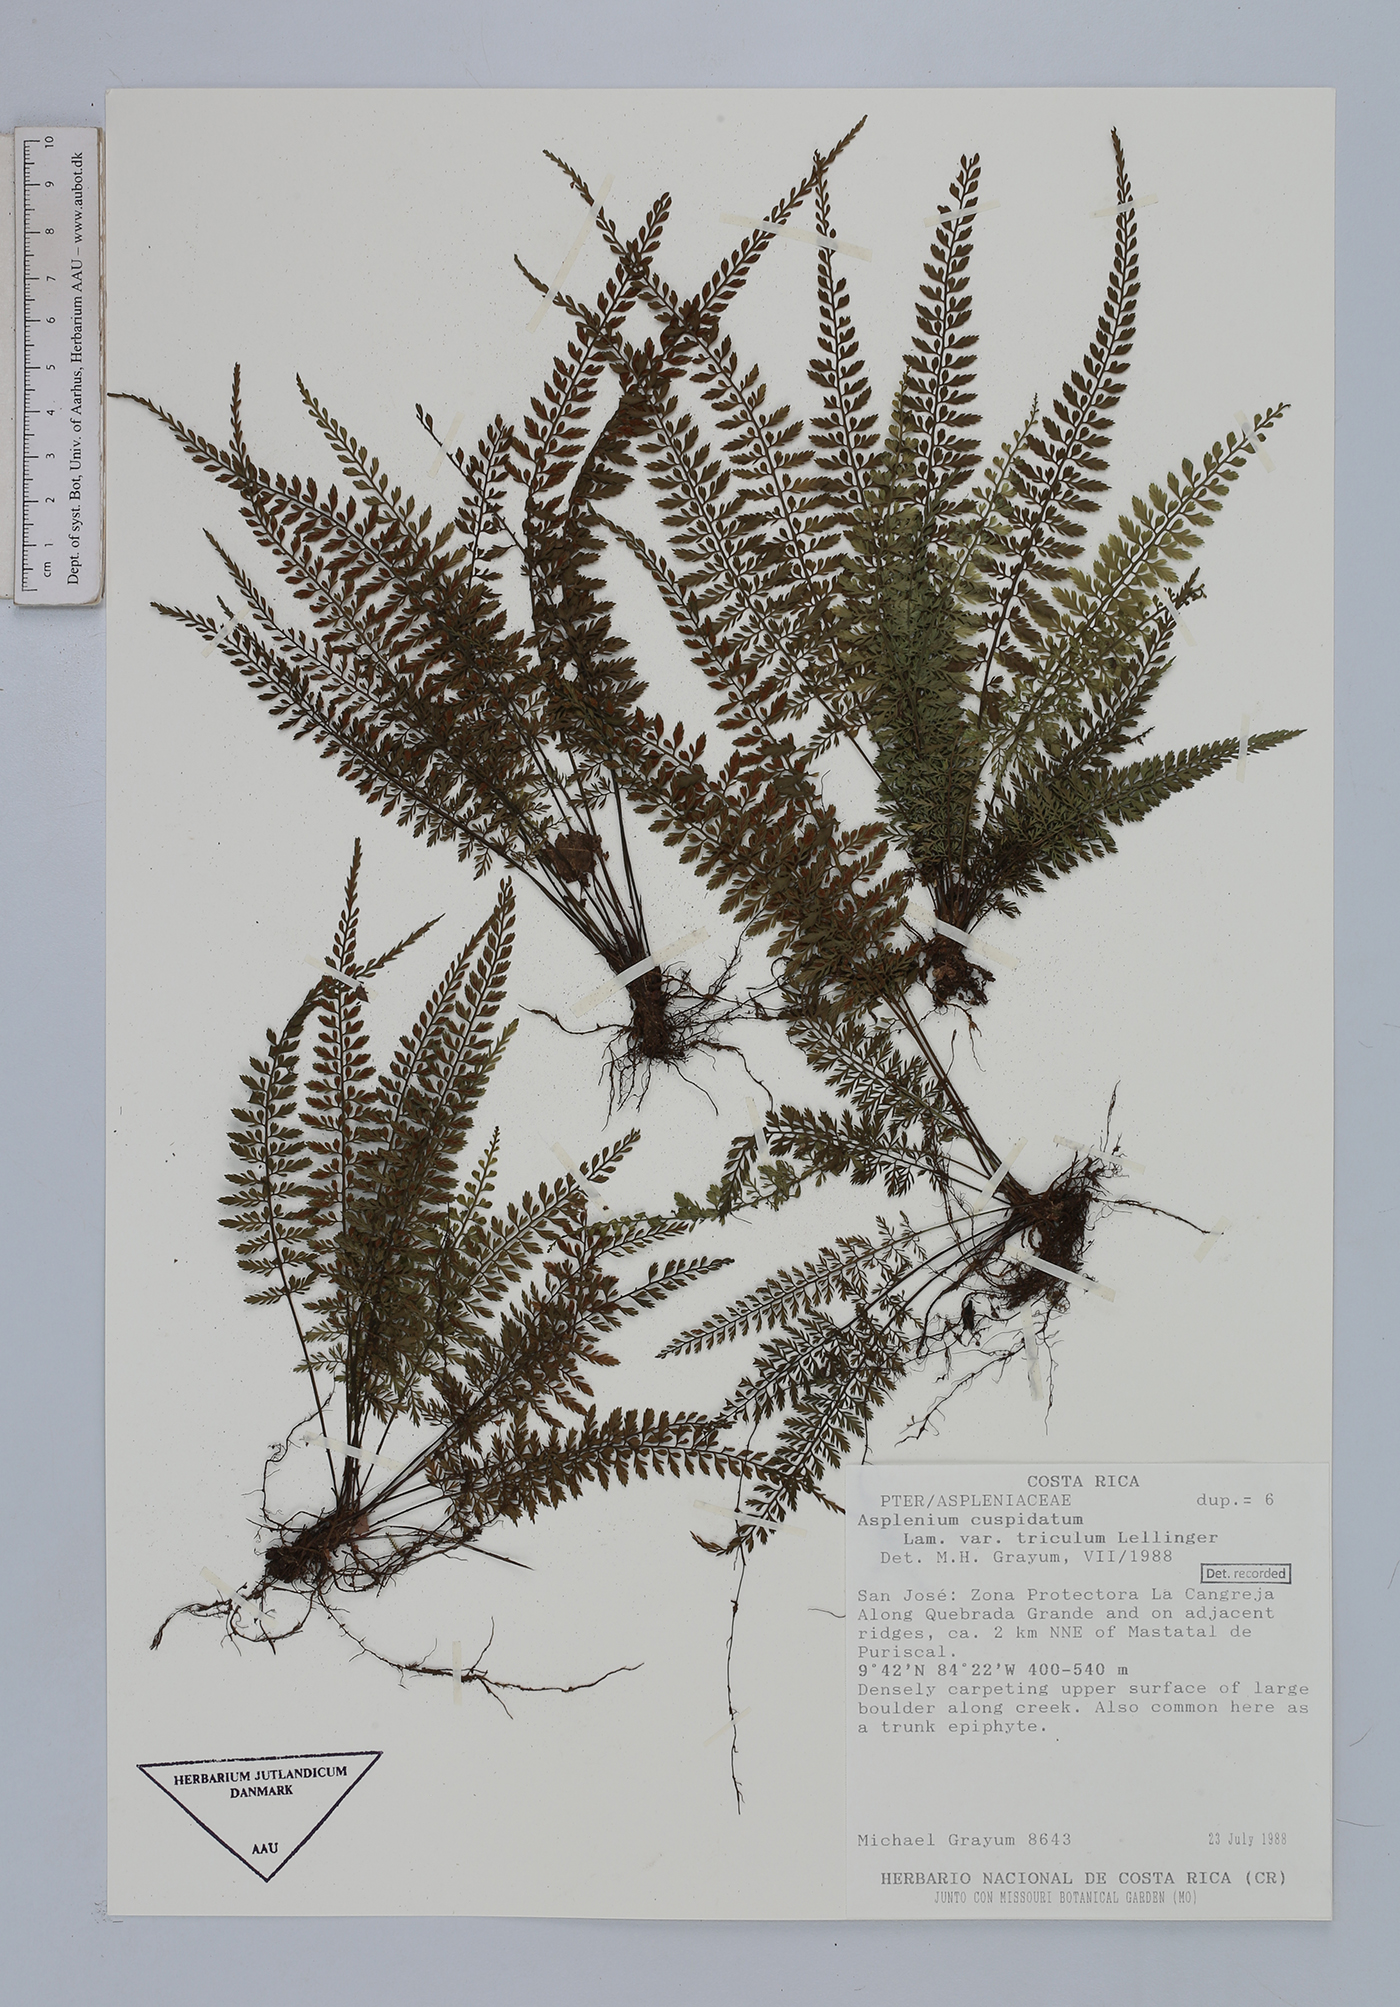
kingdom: Plantae
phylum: Tracheophyta
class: Polypodiopsida
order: Polypodiales
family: Aspleniaceae
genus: Asplenium
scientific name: Asplenium cuspidatum
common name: Eared spleenwort
